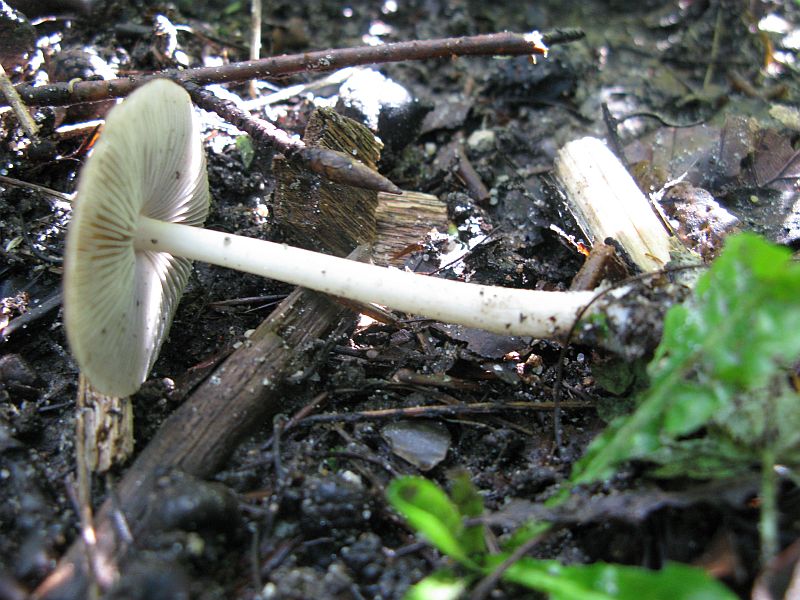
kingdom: Fungi
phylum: Basidiomycota
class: Agaricomycetes
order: Agaricales
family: Psathyrellaceae
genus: Psathyrella
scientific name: Psathyrella spadiceogrisea
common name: gråbrun mørkhat
